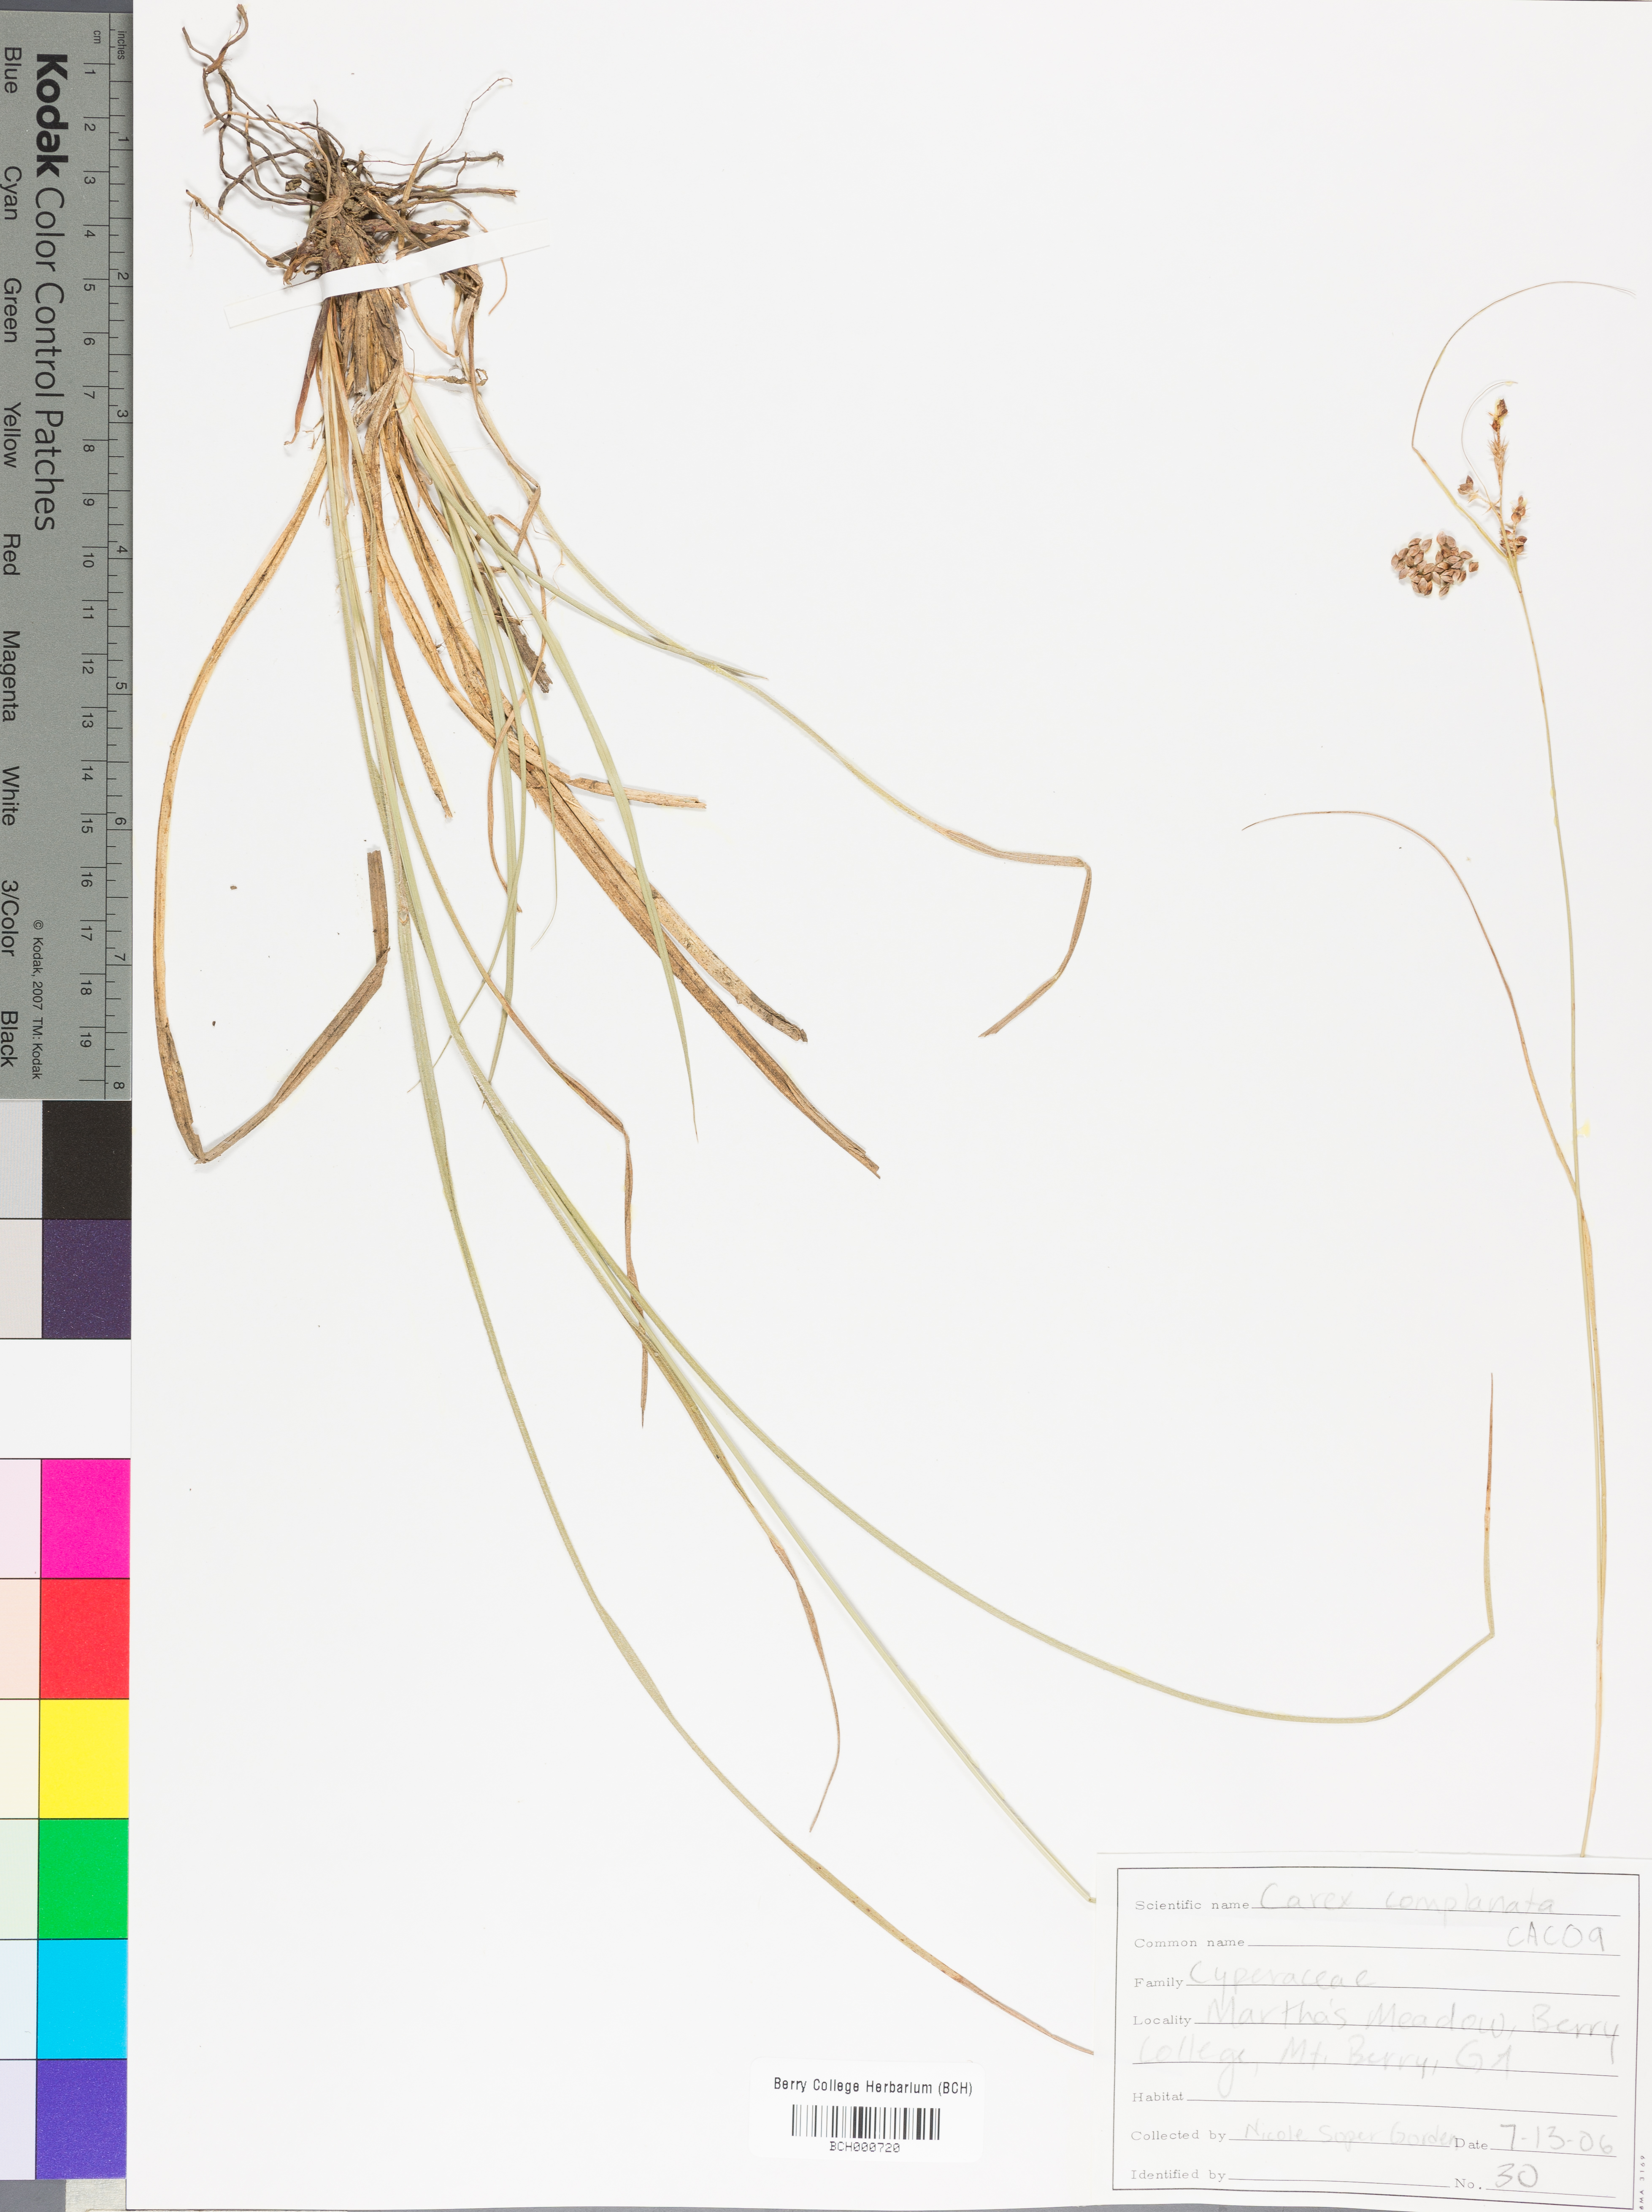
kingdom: Plantae
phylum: Tracheophyta
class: Liliopsida
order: Poales
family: Cyperaceae
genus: Carex
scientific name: Carex complanata
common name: Hirsute sedge
